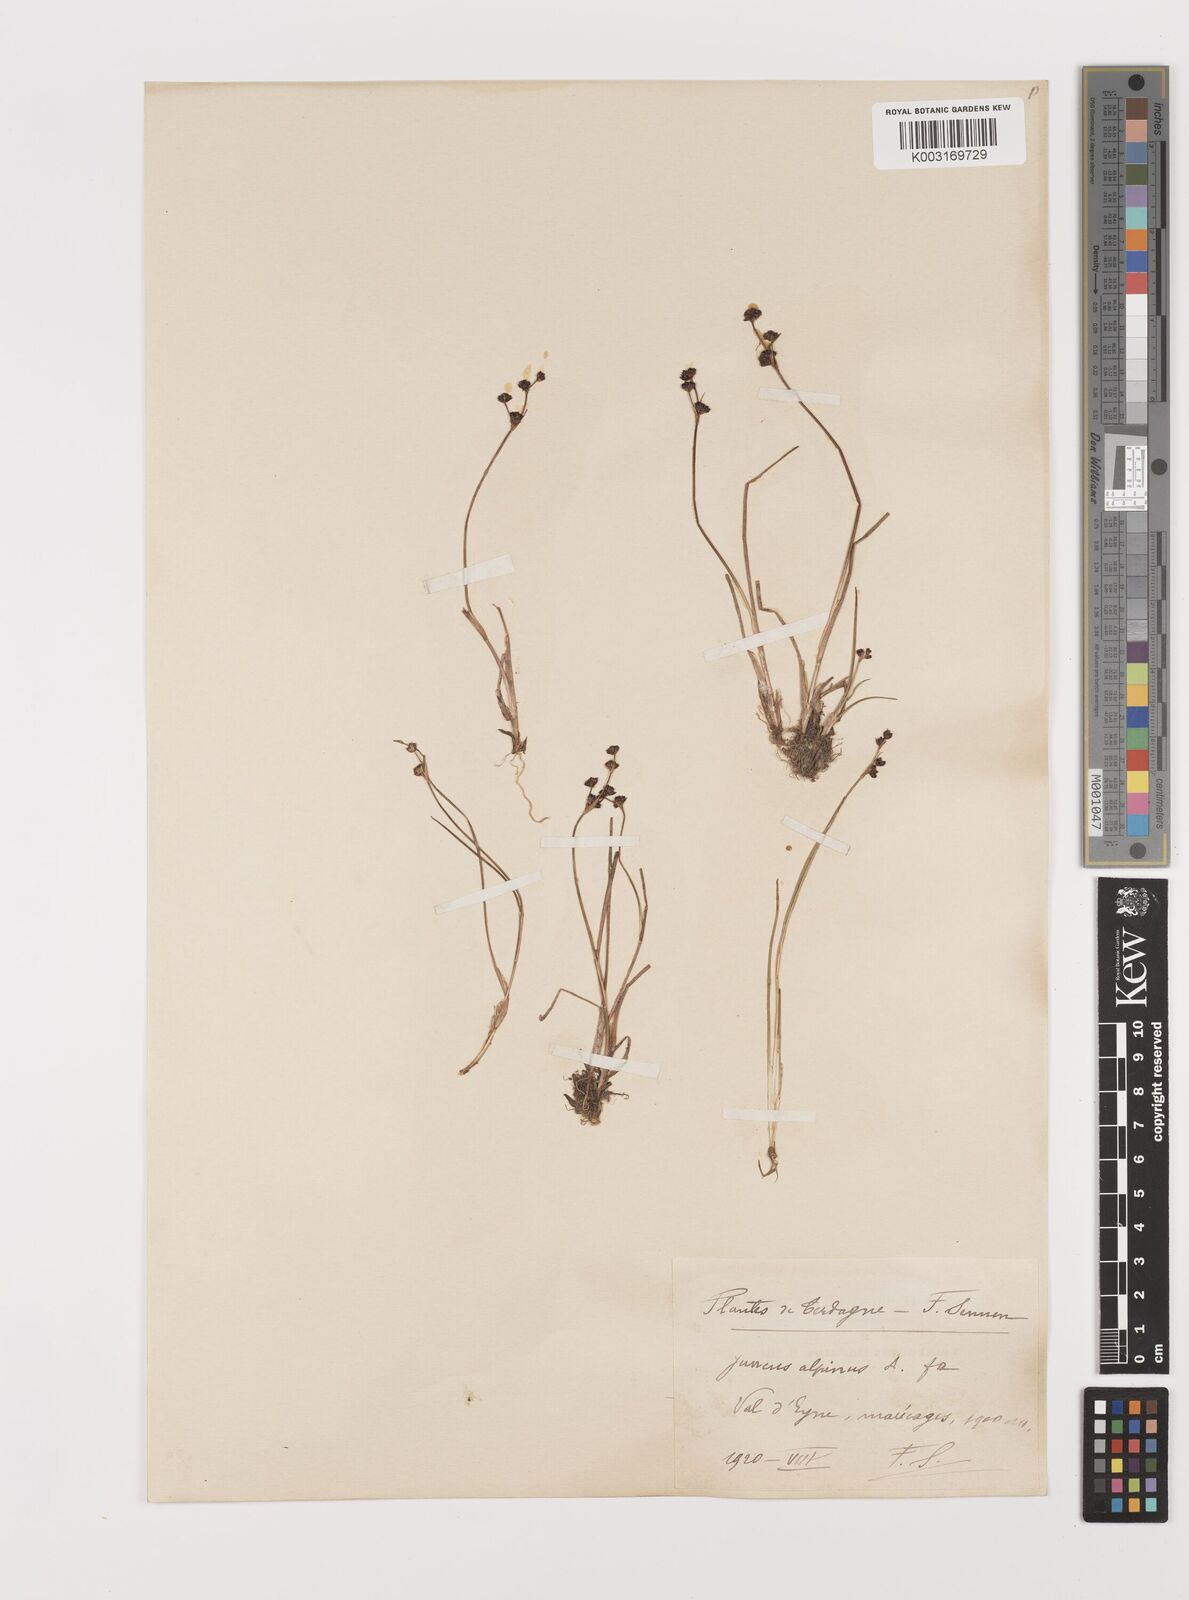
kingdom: Plantae
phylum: Tracheophyta
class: Liliopsida
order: Poales
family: Juncaceae
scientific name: Juncaceae
